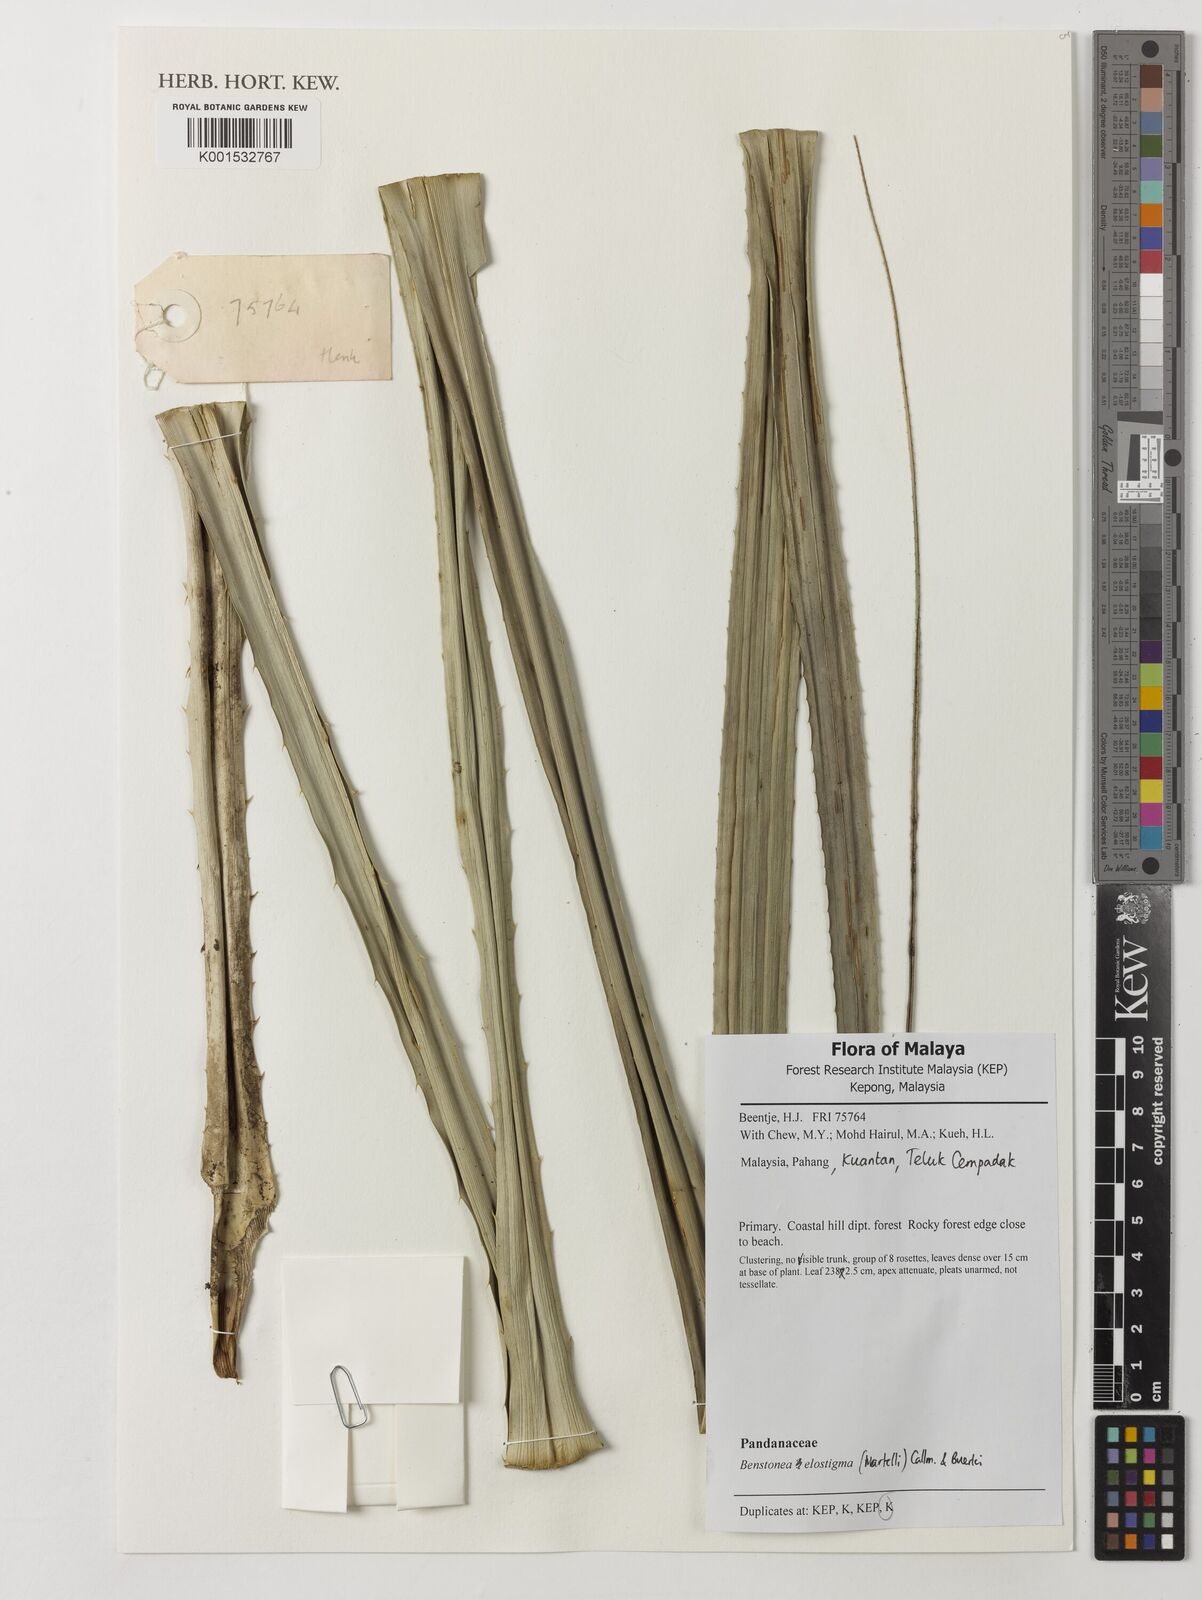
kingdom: Plantae
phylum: Tracheophyta
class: Liliopsida
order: Pandanales
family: Pandanaceae
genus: Benstonea
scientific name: Benstonea elostigma
